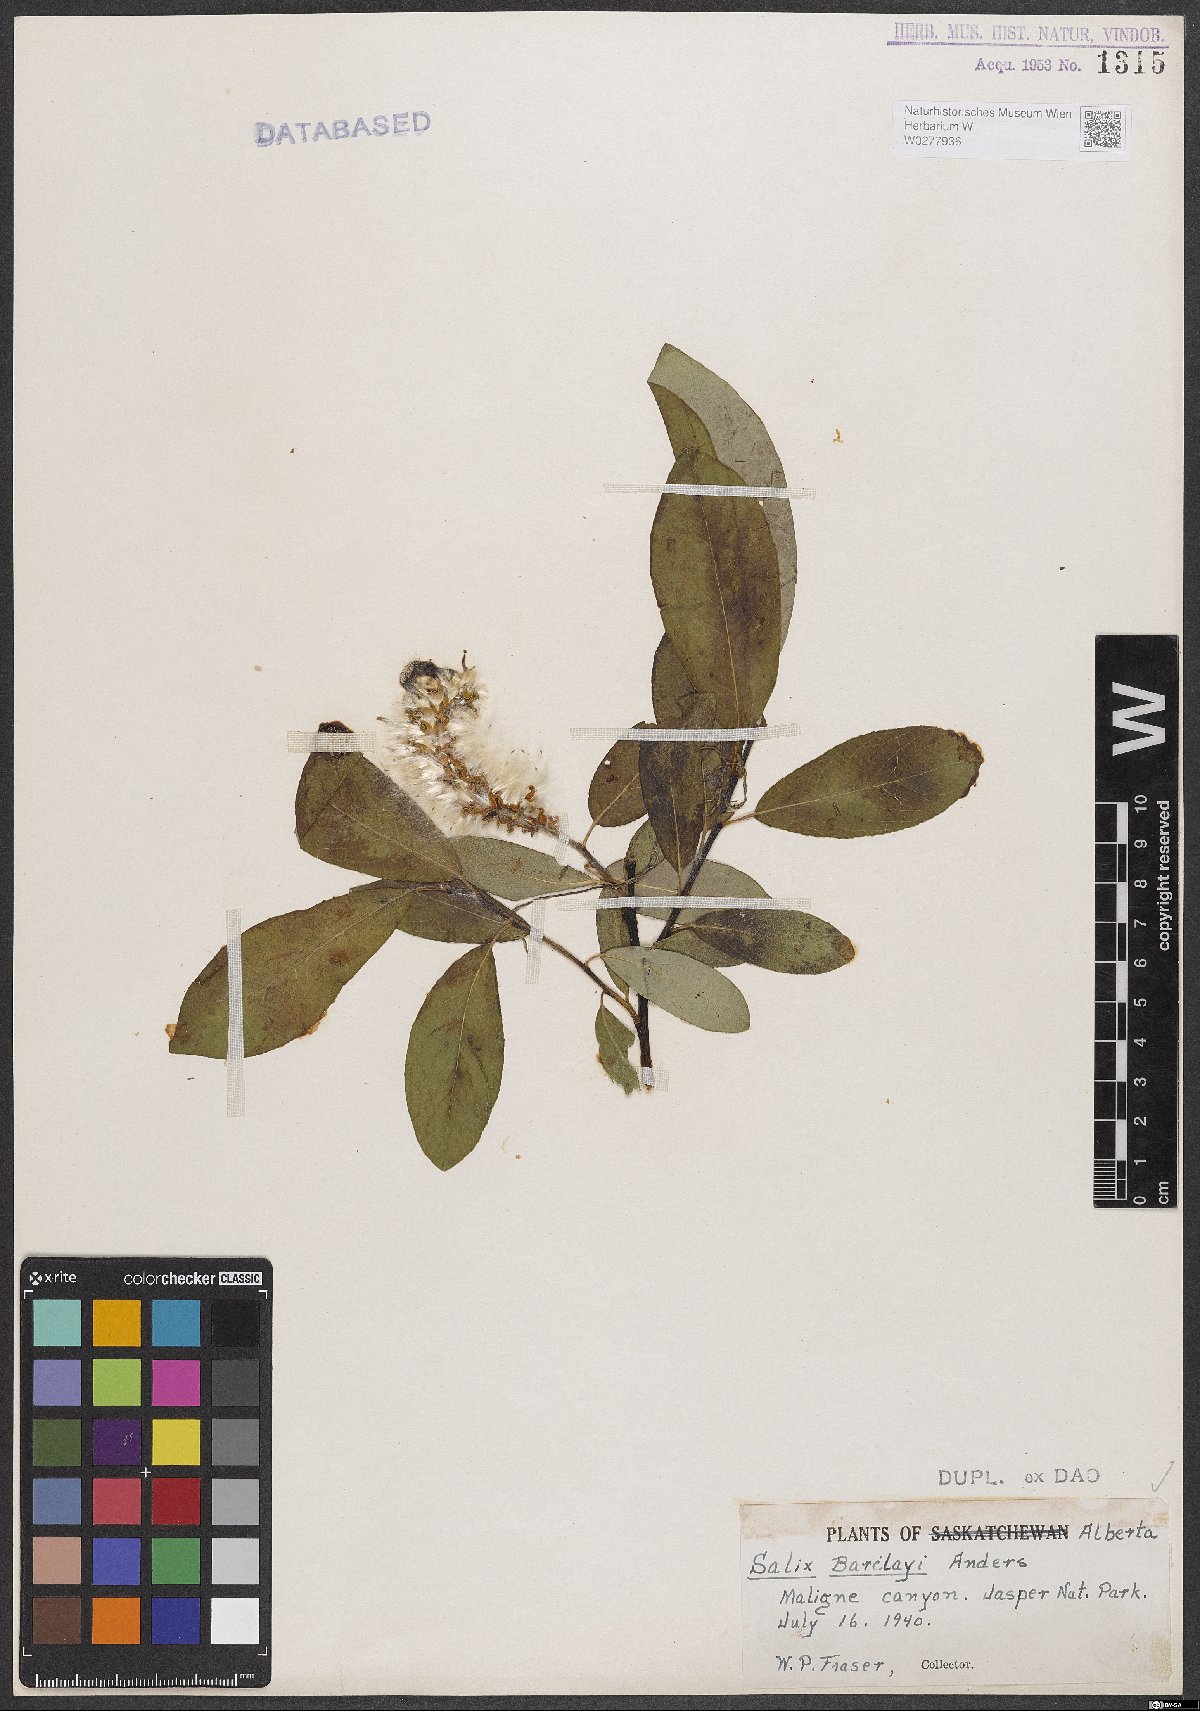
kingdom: Plantae
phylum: Tracheophyta
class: Magnoliopsida
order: Malpighiales
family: Salicaceae
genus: Salix
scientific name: Salix barclayi
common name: Mountain willow
